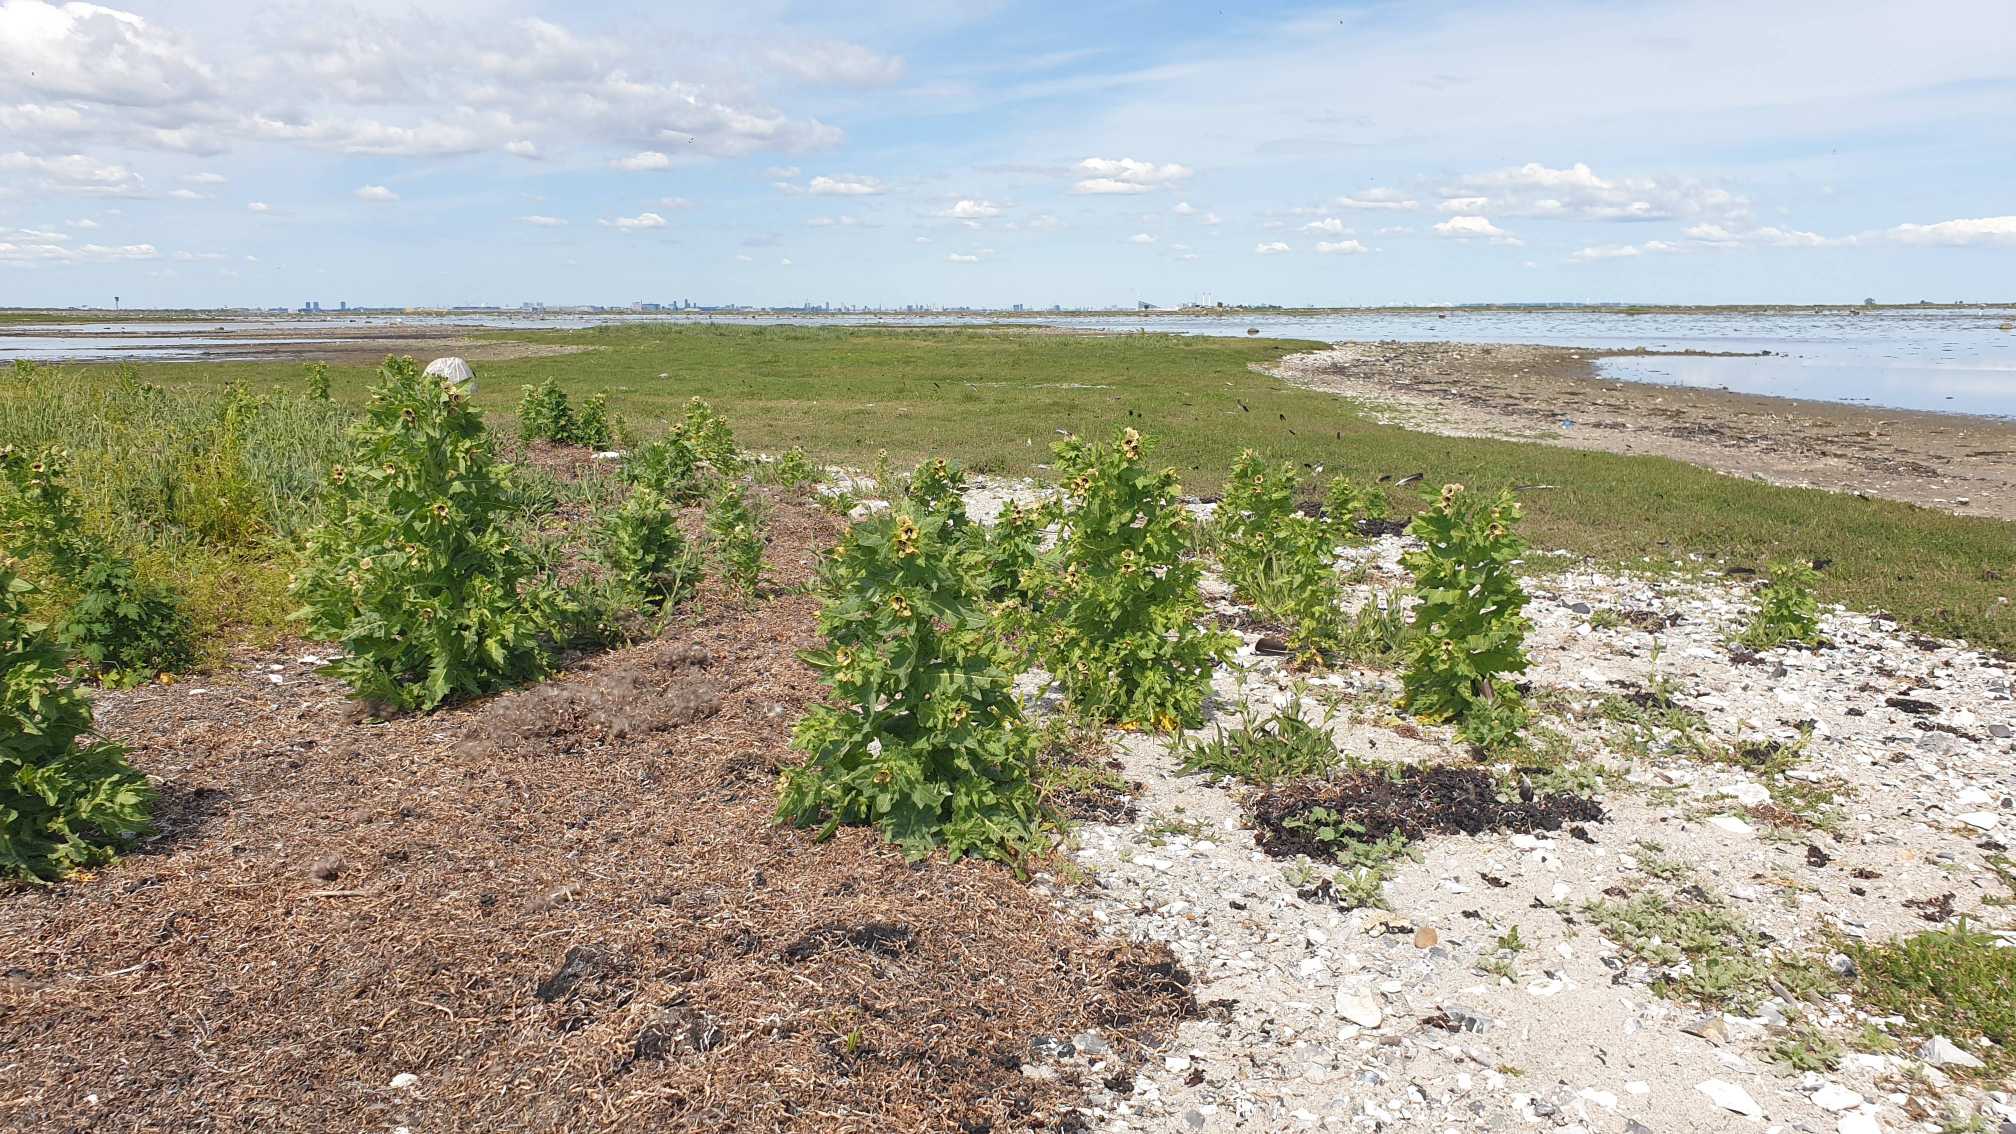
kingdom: Plantae
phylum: Tracheophyta
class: Magnoliopsida
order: Solanales
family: Solanaceae
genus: Hyoscyamus
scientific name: Hyoscyamus niger
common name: Bulmeurt
